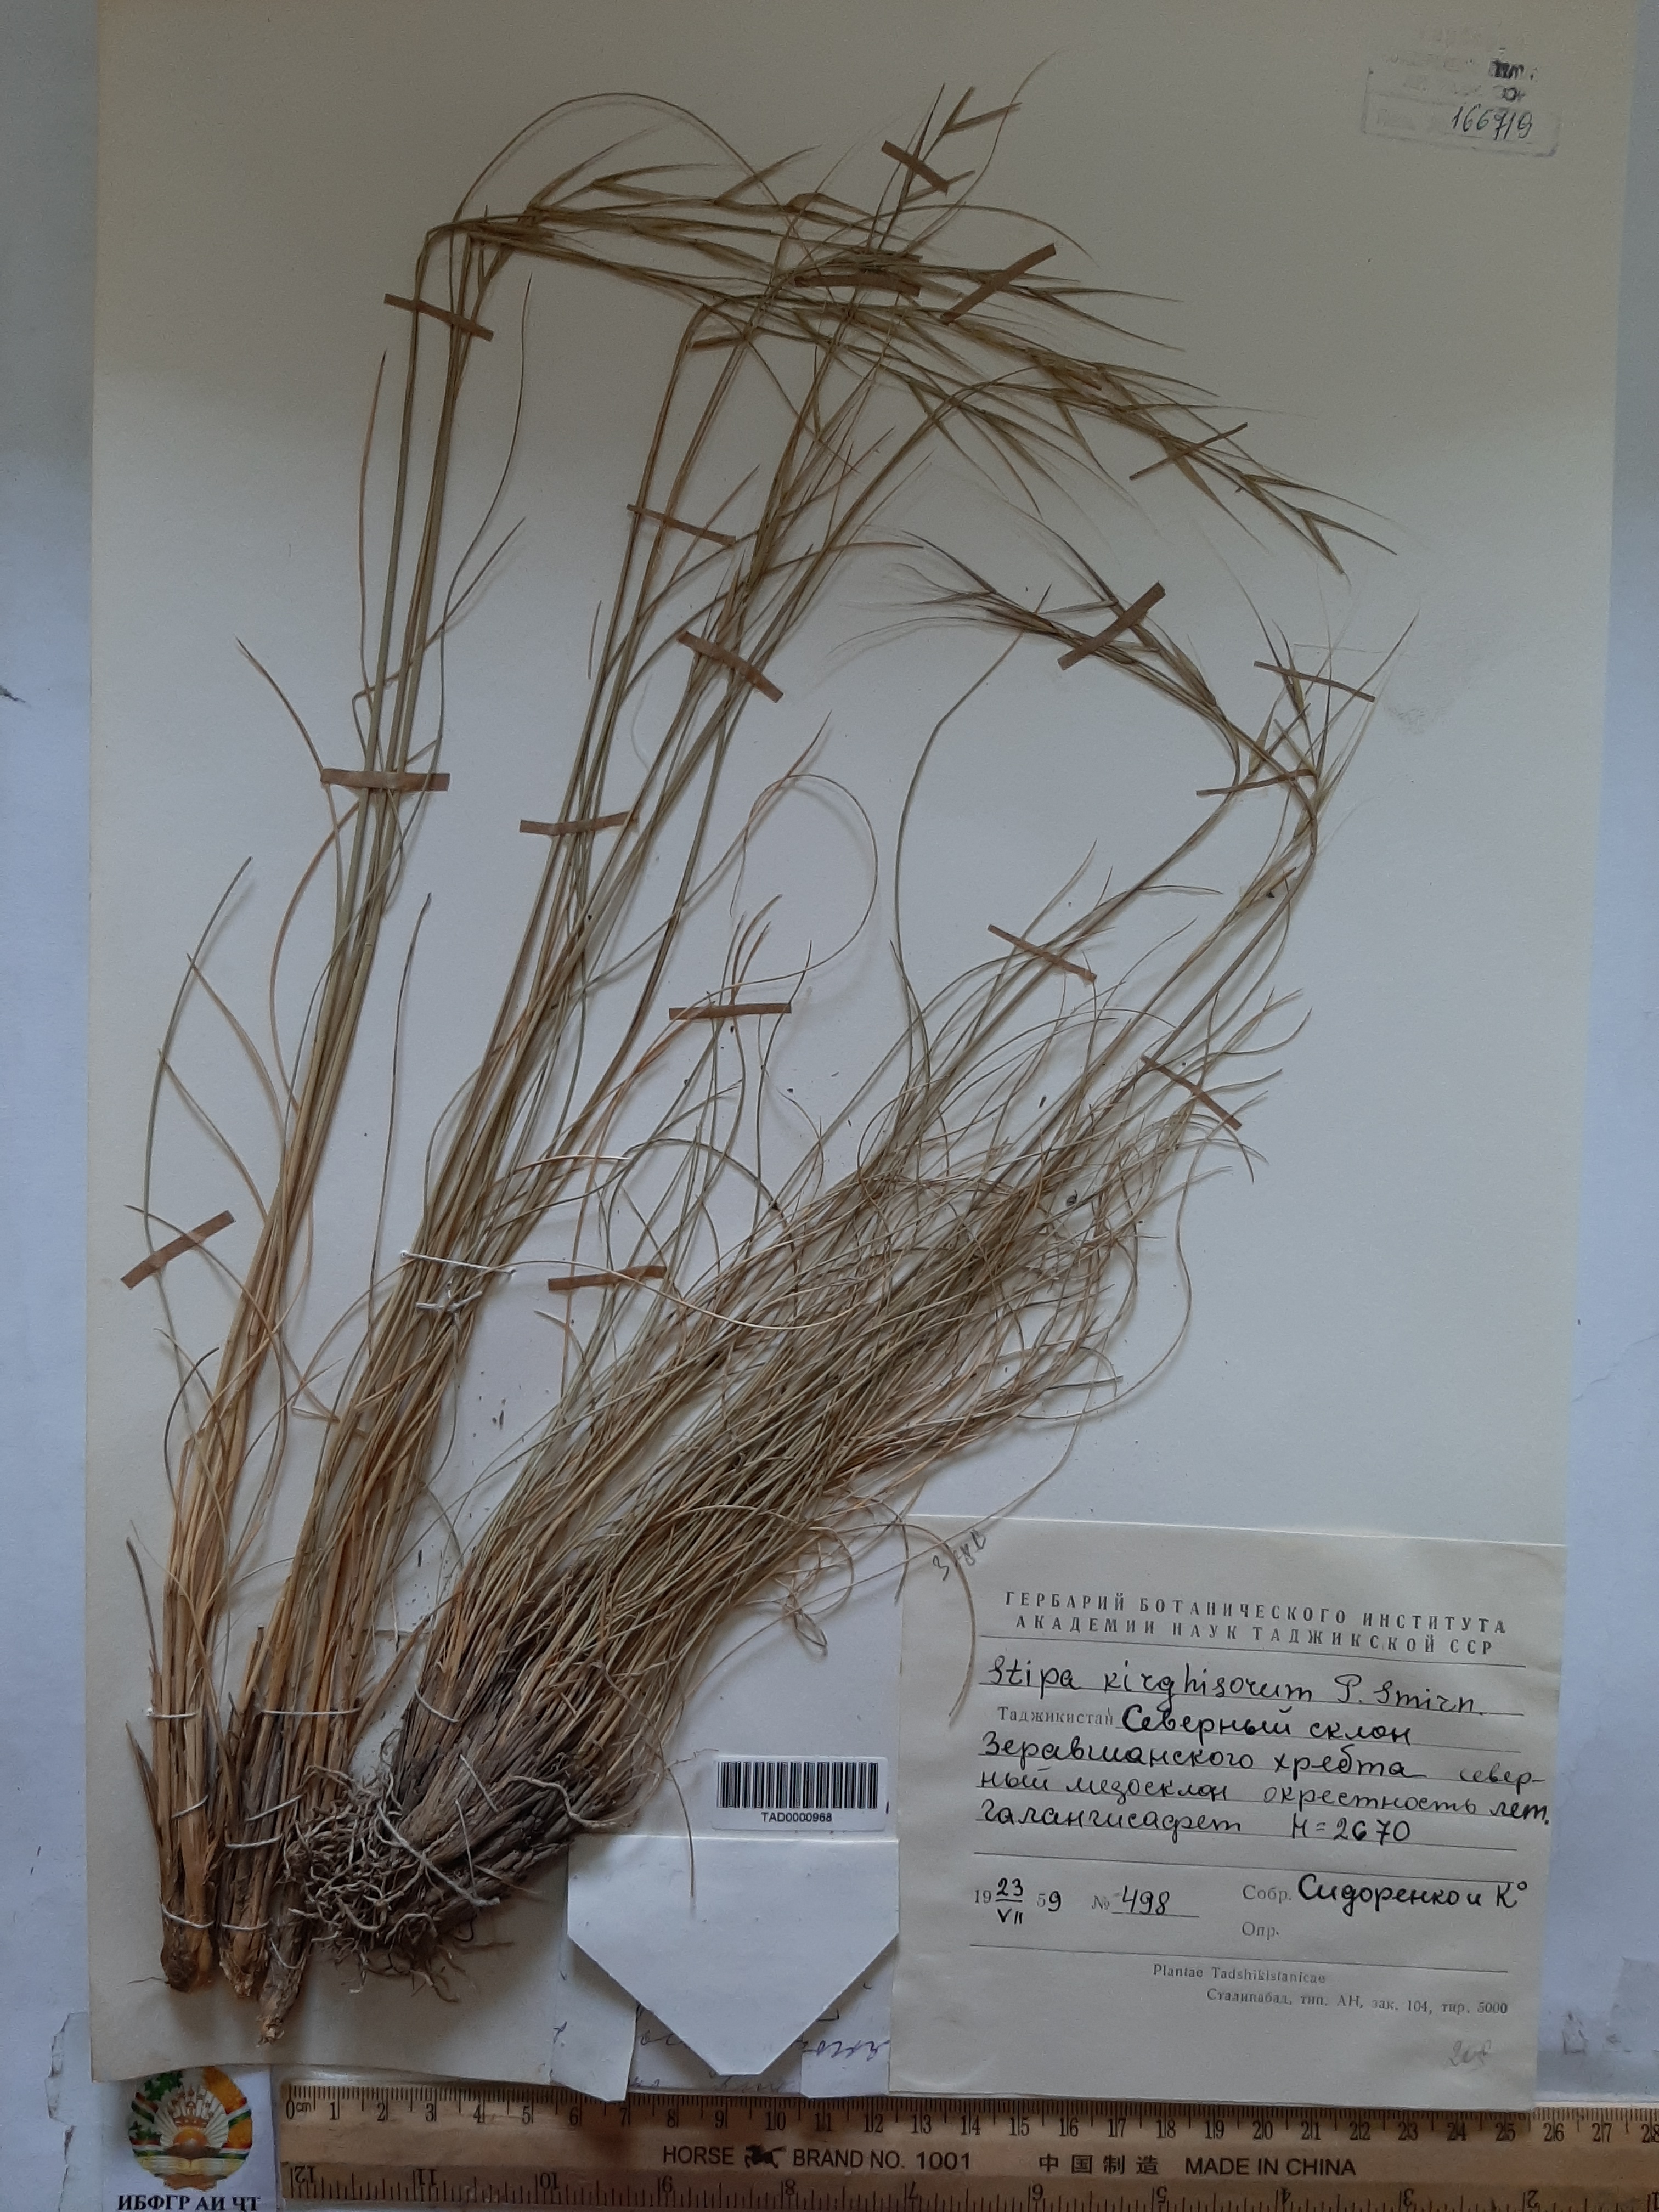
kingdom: Plantae
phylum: Tracheophyta
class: Liliopsida
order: Poales
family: Poaceae
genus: Stipa
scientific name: Stipa kirghisorum
